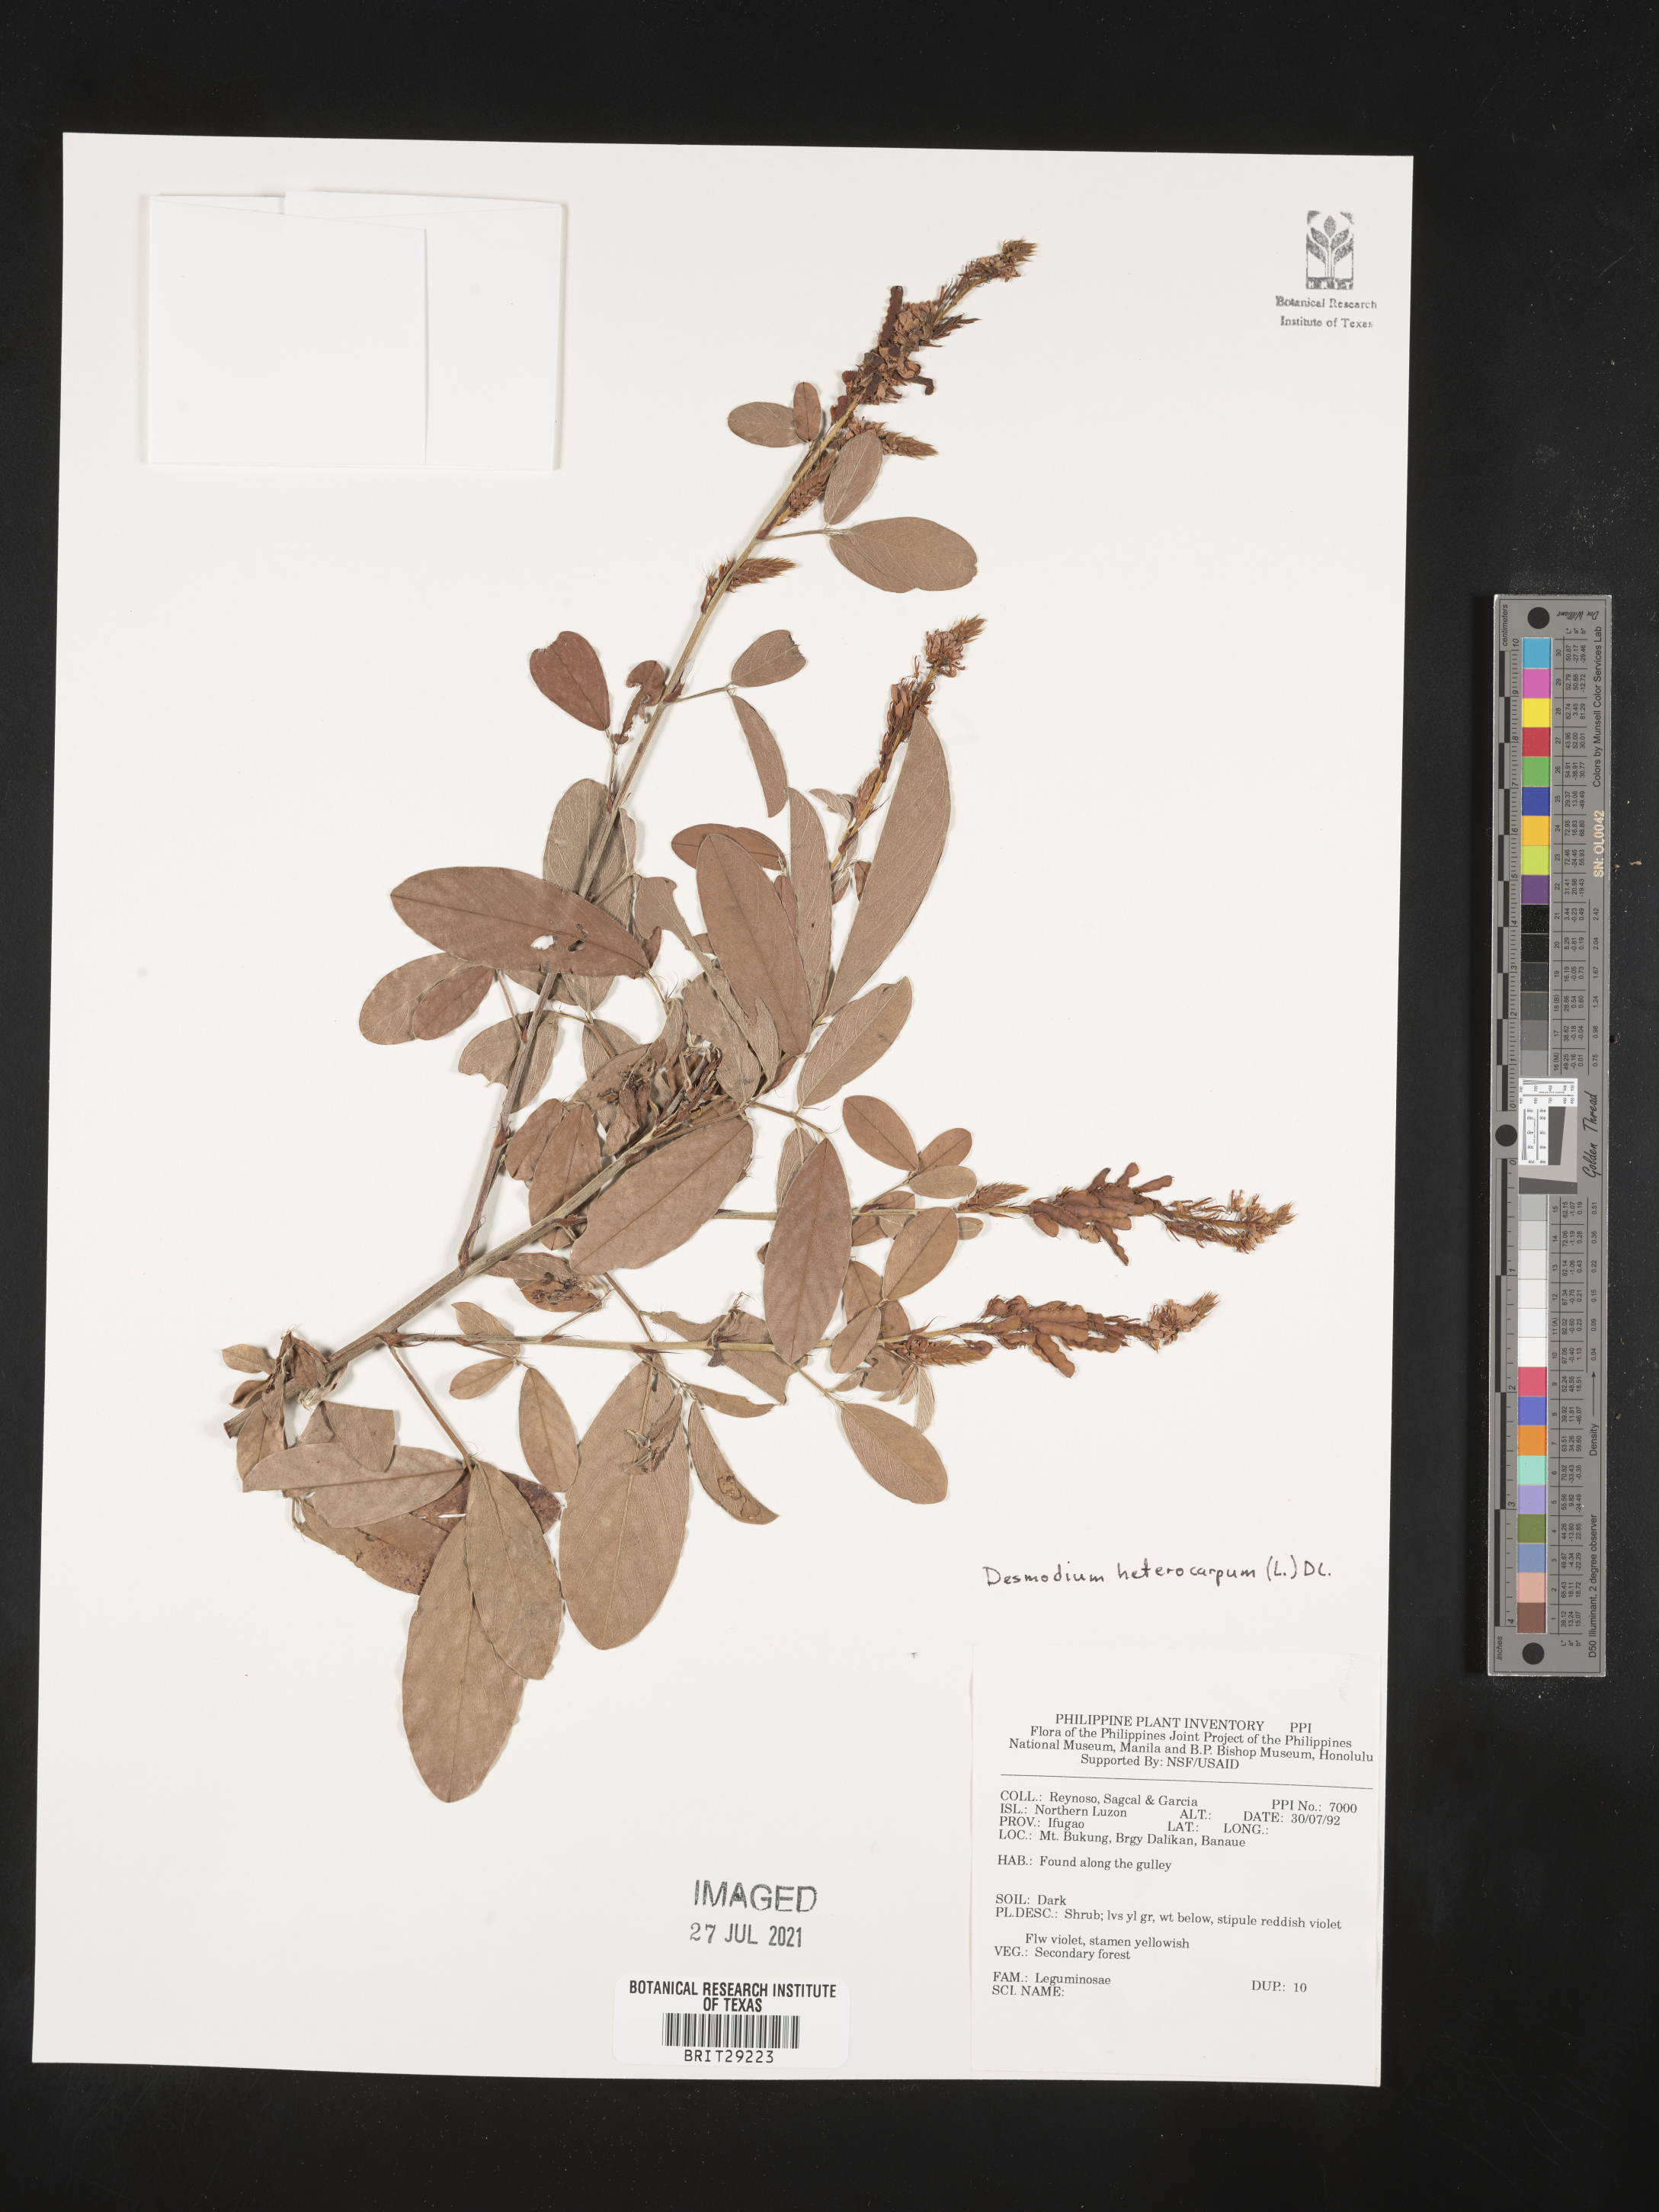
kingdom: Plantae
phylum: Tracheophyta
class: Magnoliopsida
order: Fabales
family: Fabaceae
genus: Desmodium
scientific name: Desmodium heterocarpum
